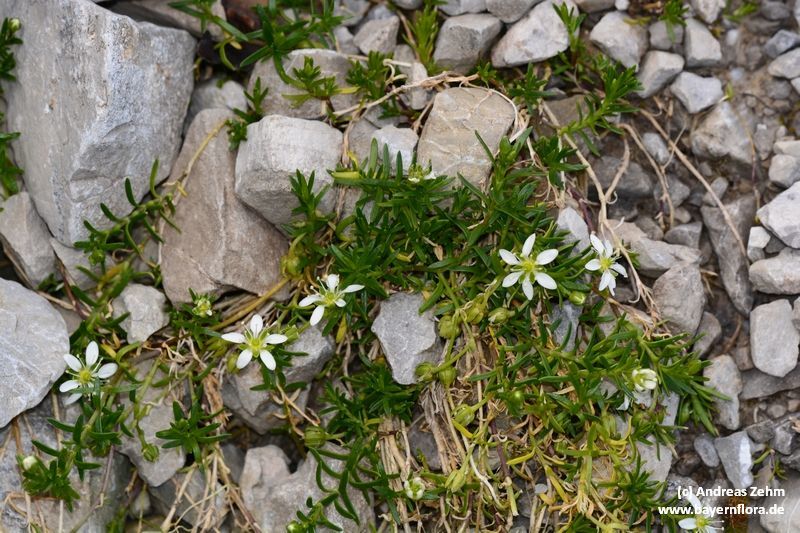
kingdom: Plantae
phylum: Tracheophyta
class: Magnoliopsida
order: Caryophyllales
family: Caryophyllaceae
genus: Moehringia
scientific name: Moehringia ciliata
